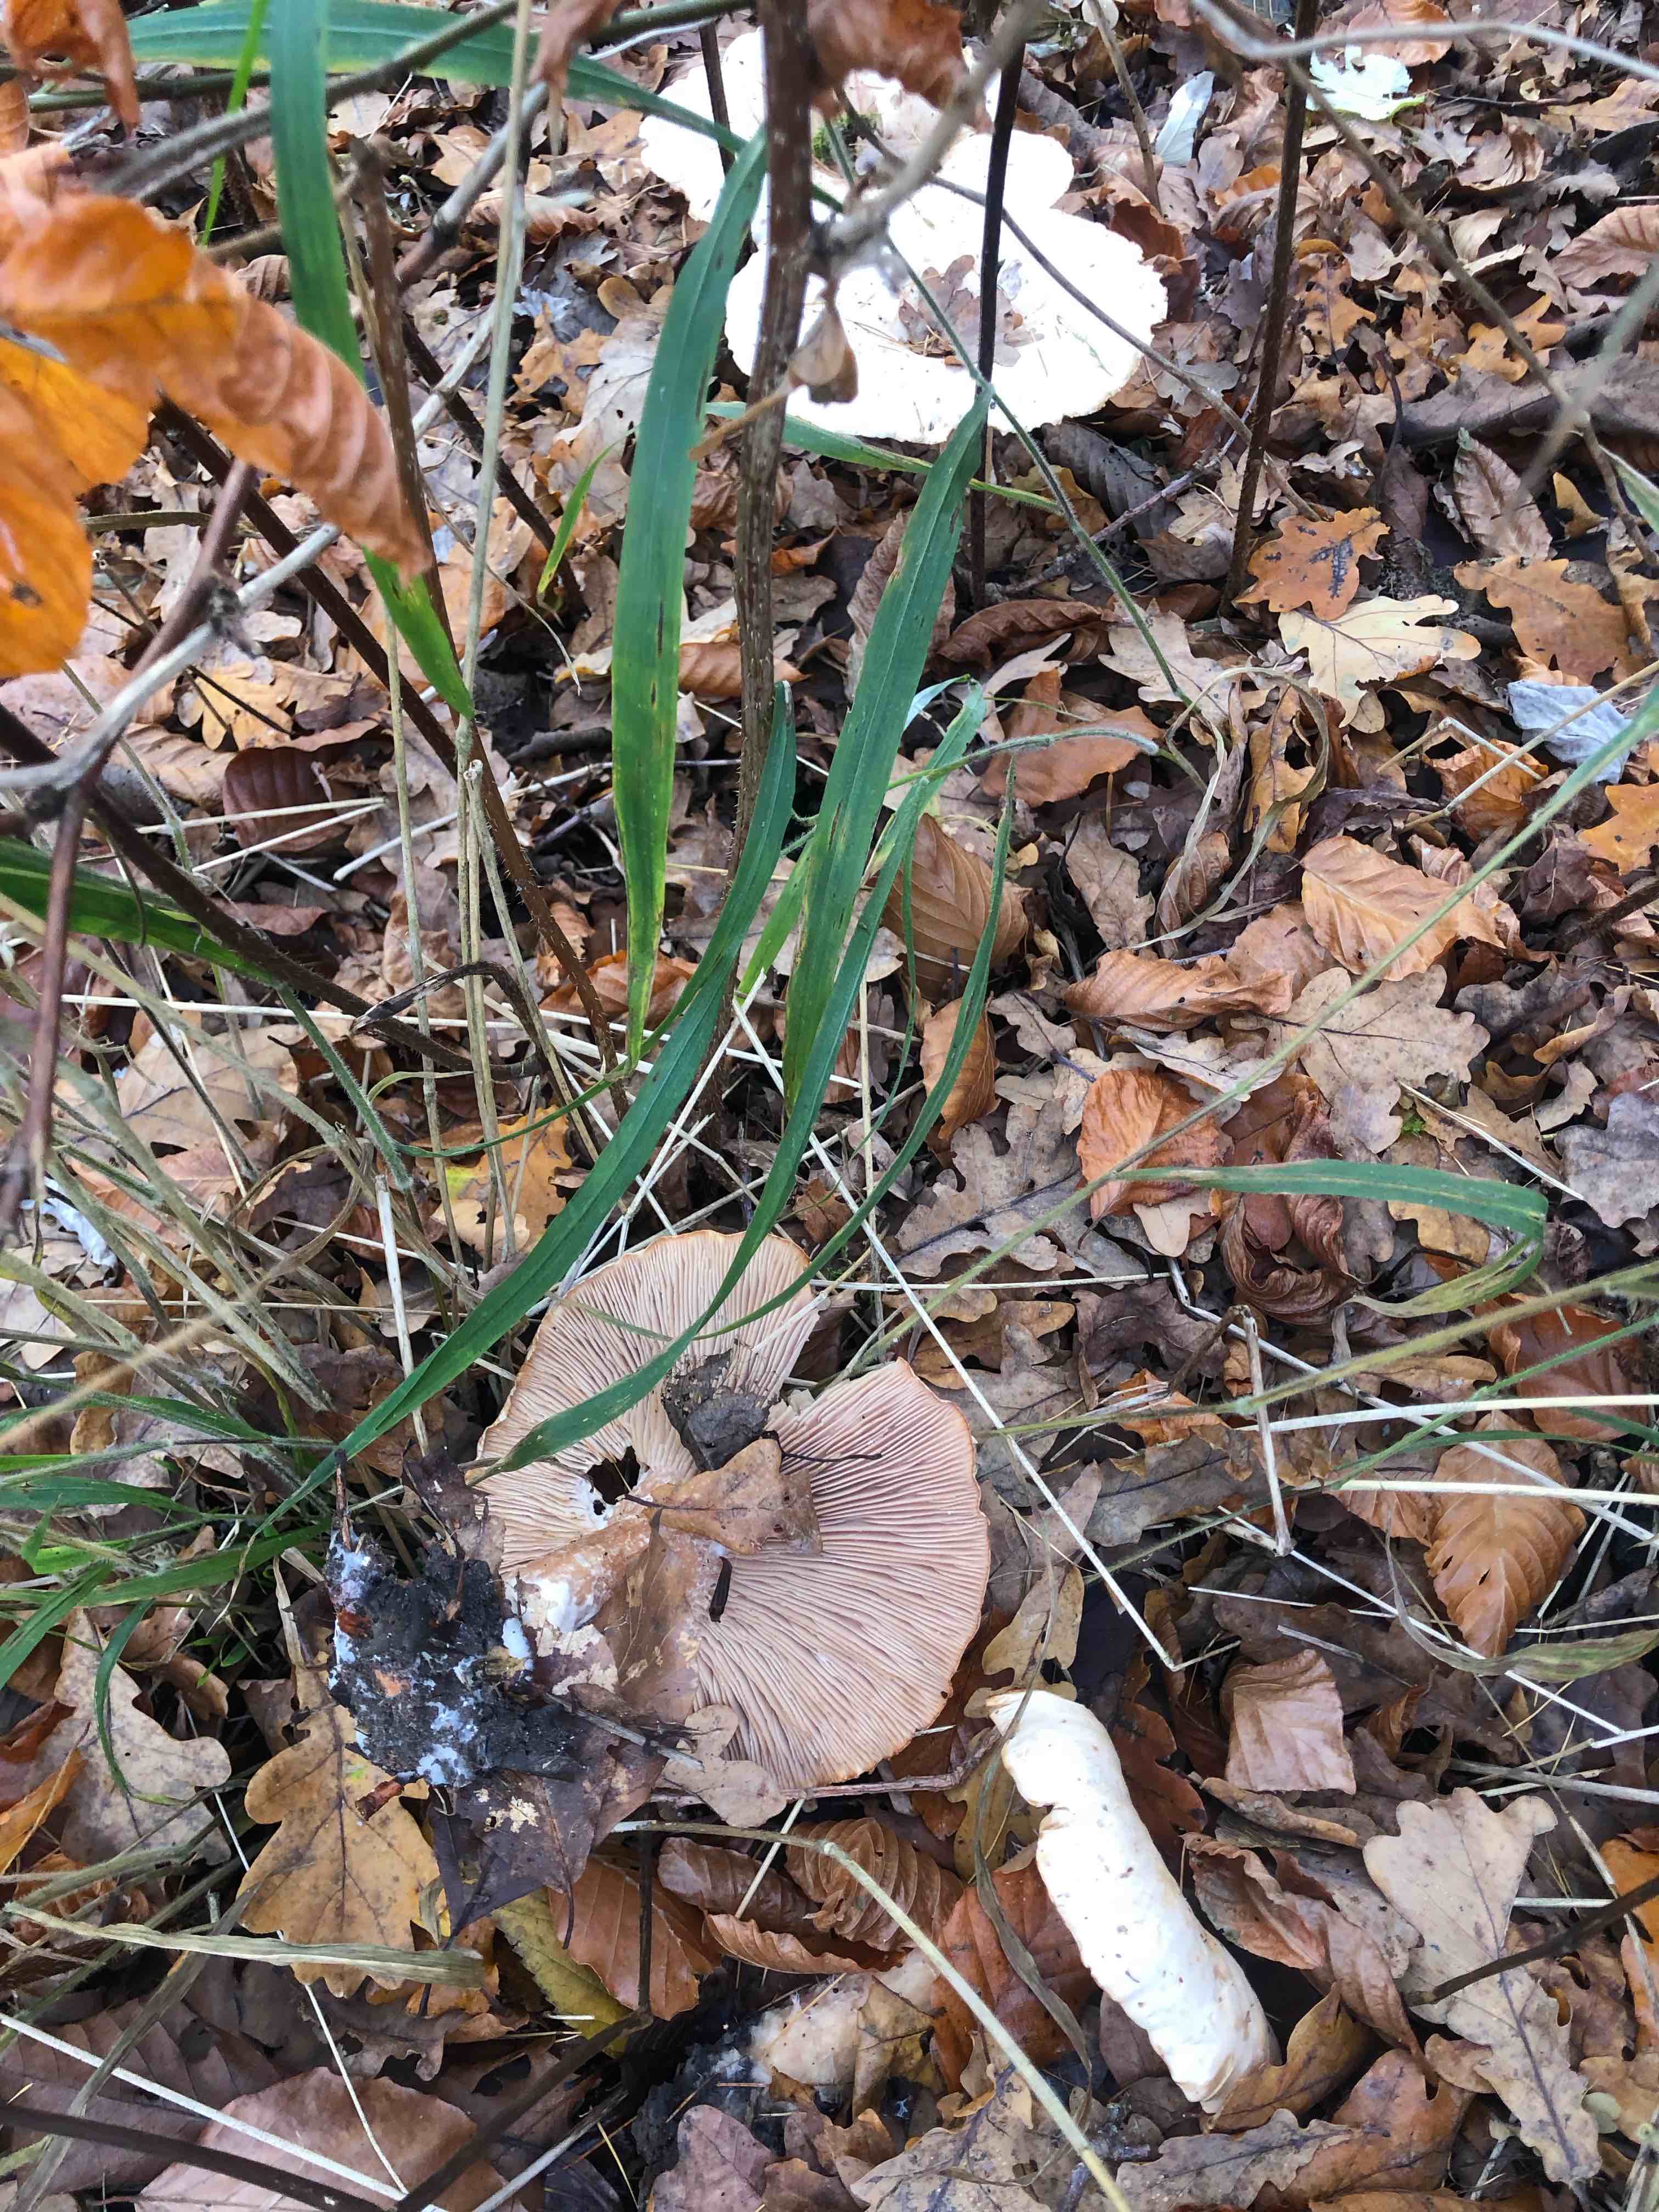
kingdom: Fungi
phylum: Basidiomycota
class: Agaricomycetes
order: Agaricales
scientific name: Agaricales
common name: champignonordenen
